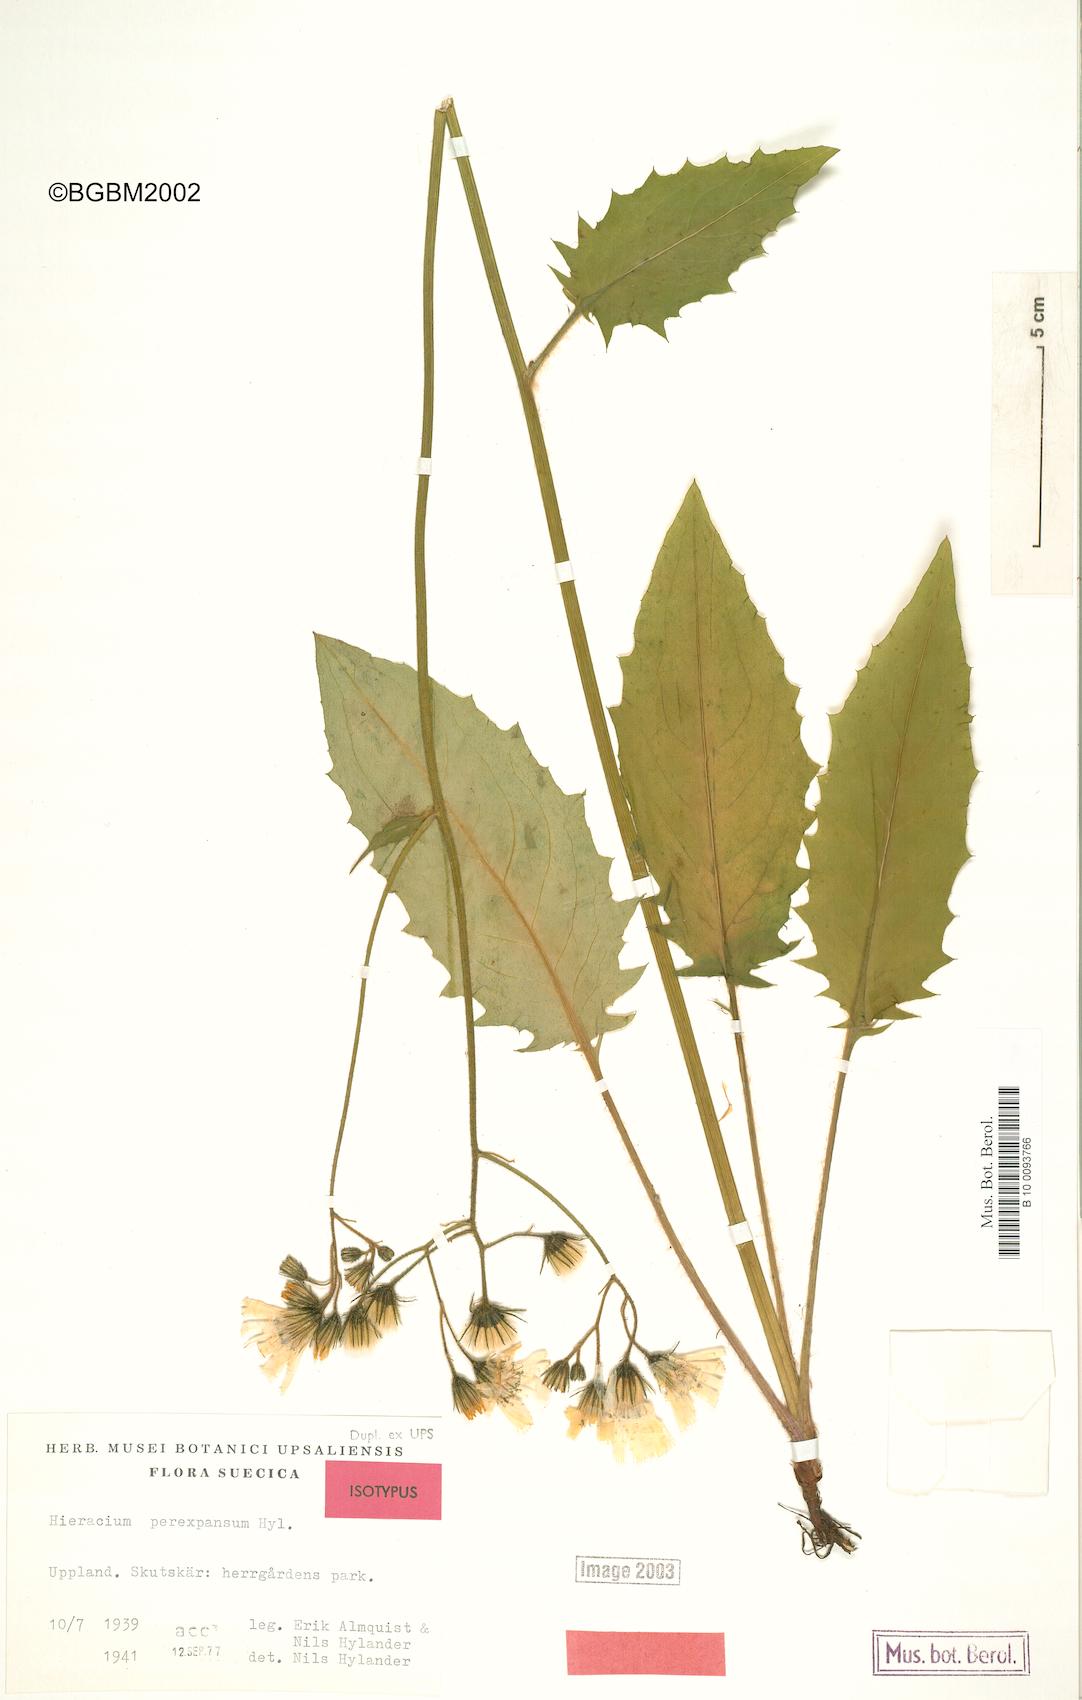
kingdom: Plantae
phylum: Tracheophyta
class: Magnoliopsida
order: Asterales
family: Asteraceae
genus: Hieracium
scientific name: Hieracium perexpansum
